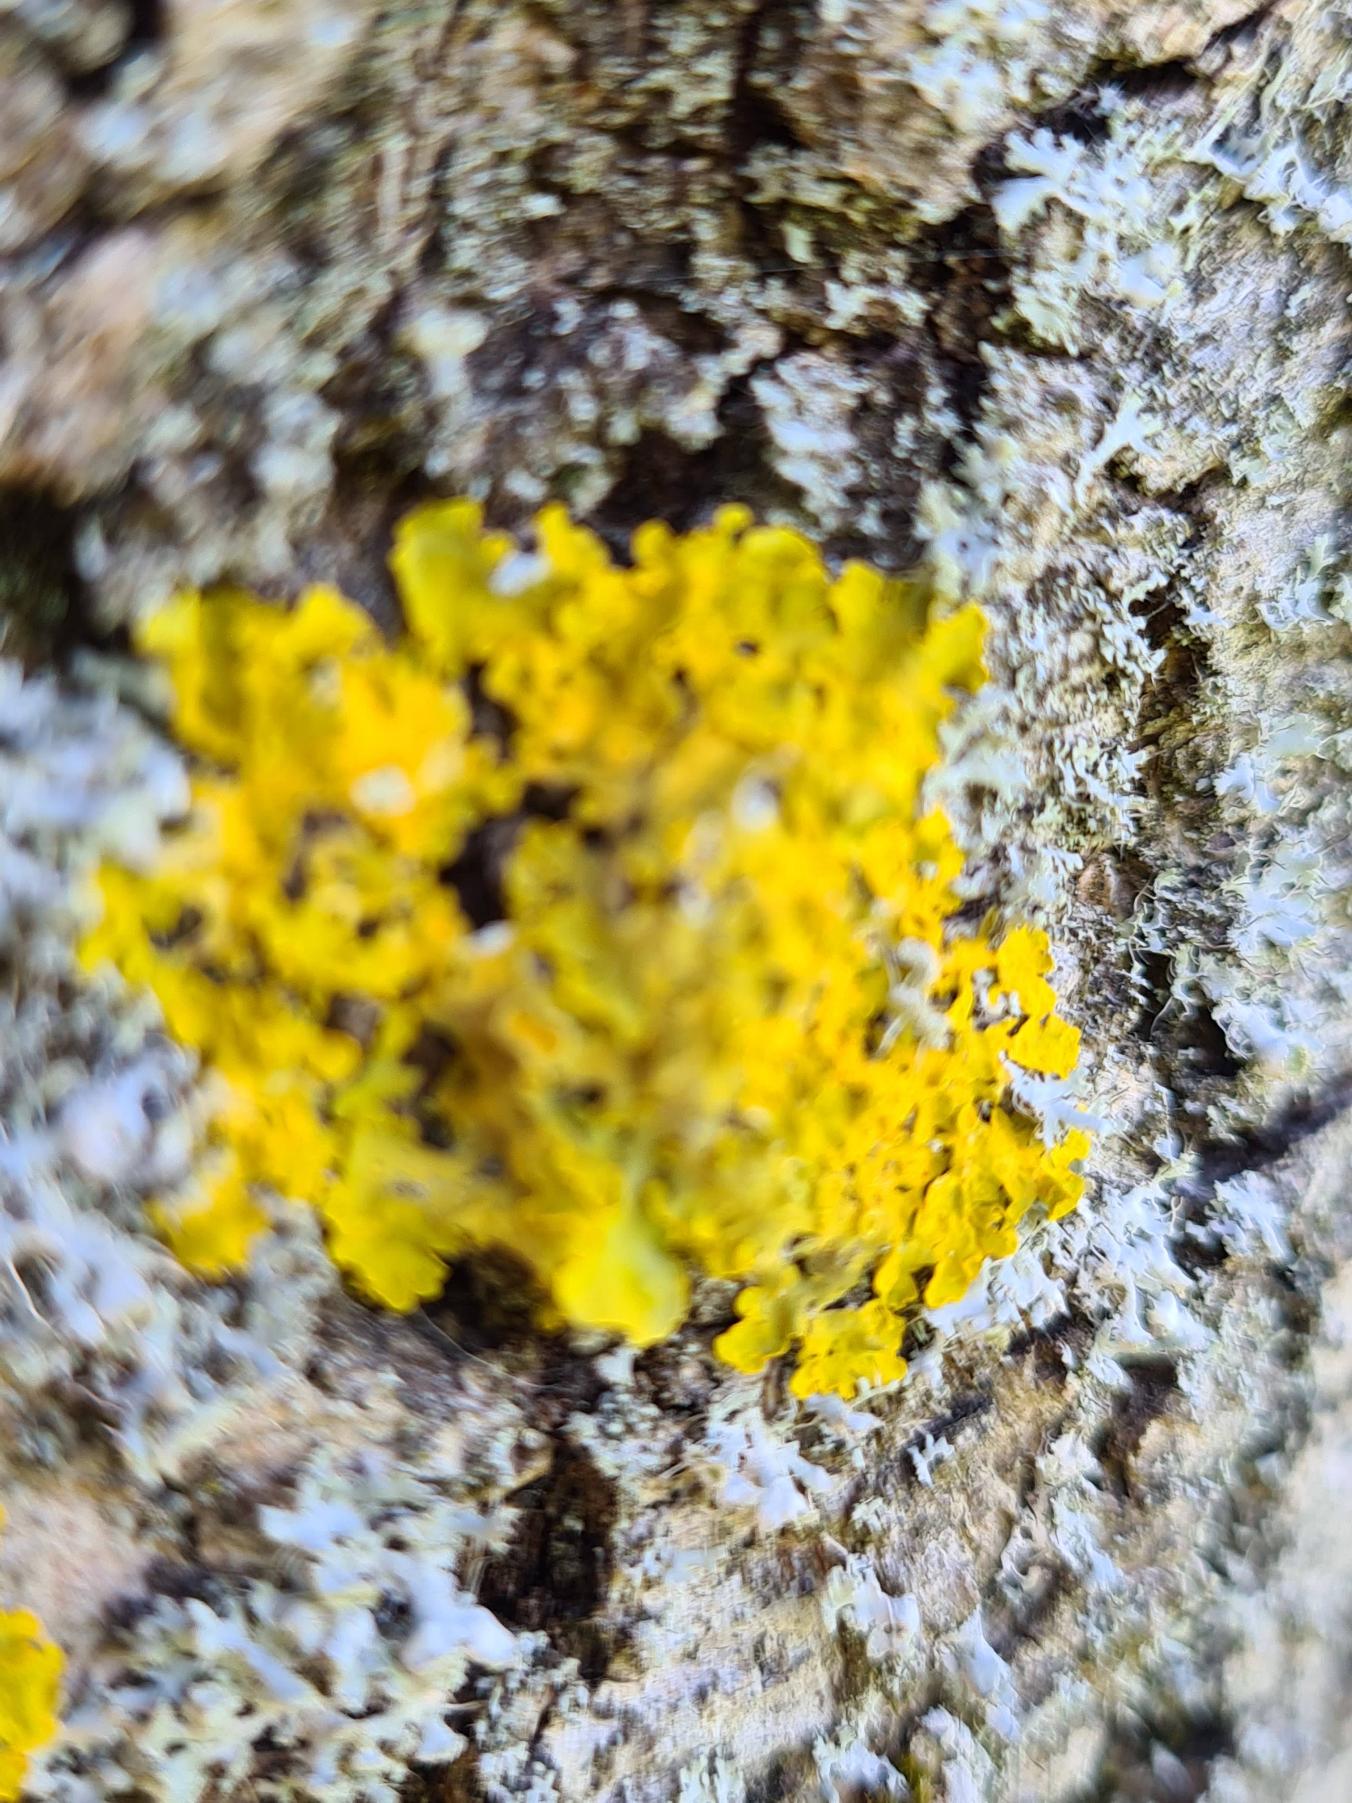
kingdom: Fungi
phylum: Ascomycota
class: Lecanoromycetes
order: Teloschistales
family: Teloschistaceae
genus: Xanthoria
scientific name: Xanthoria parietina
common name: Almindelig væggelav
